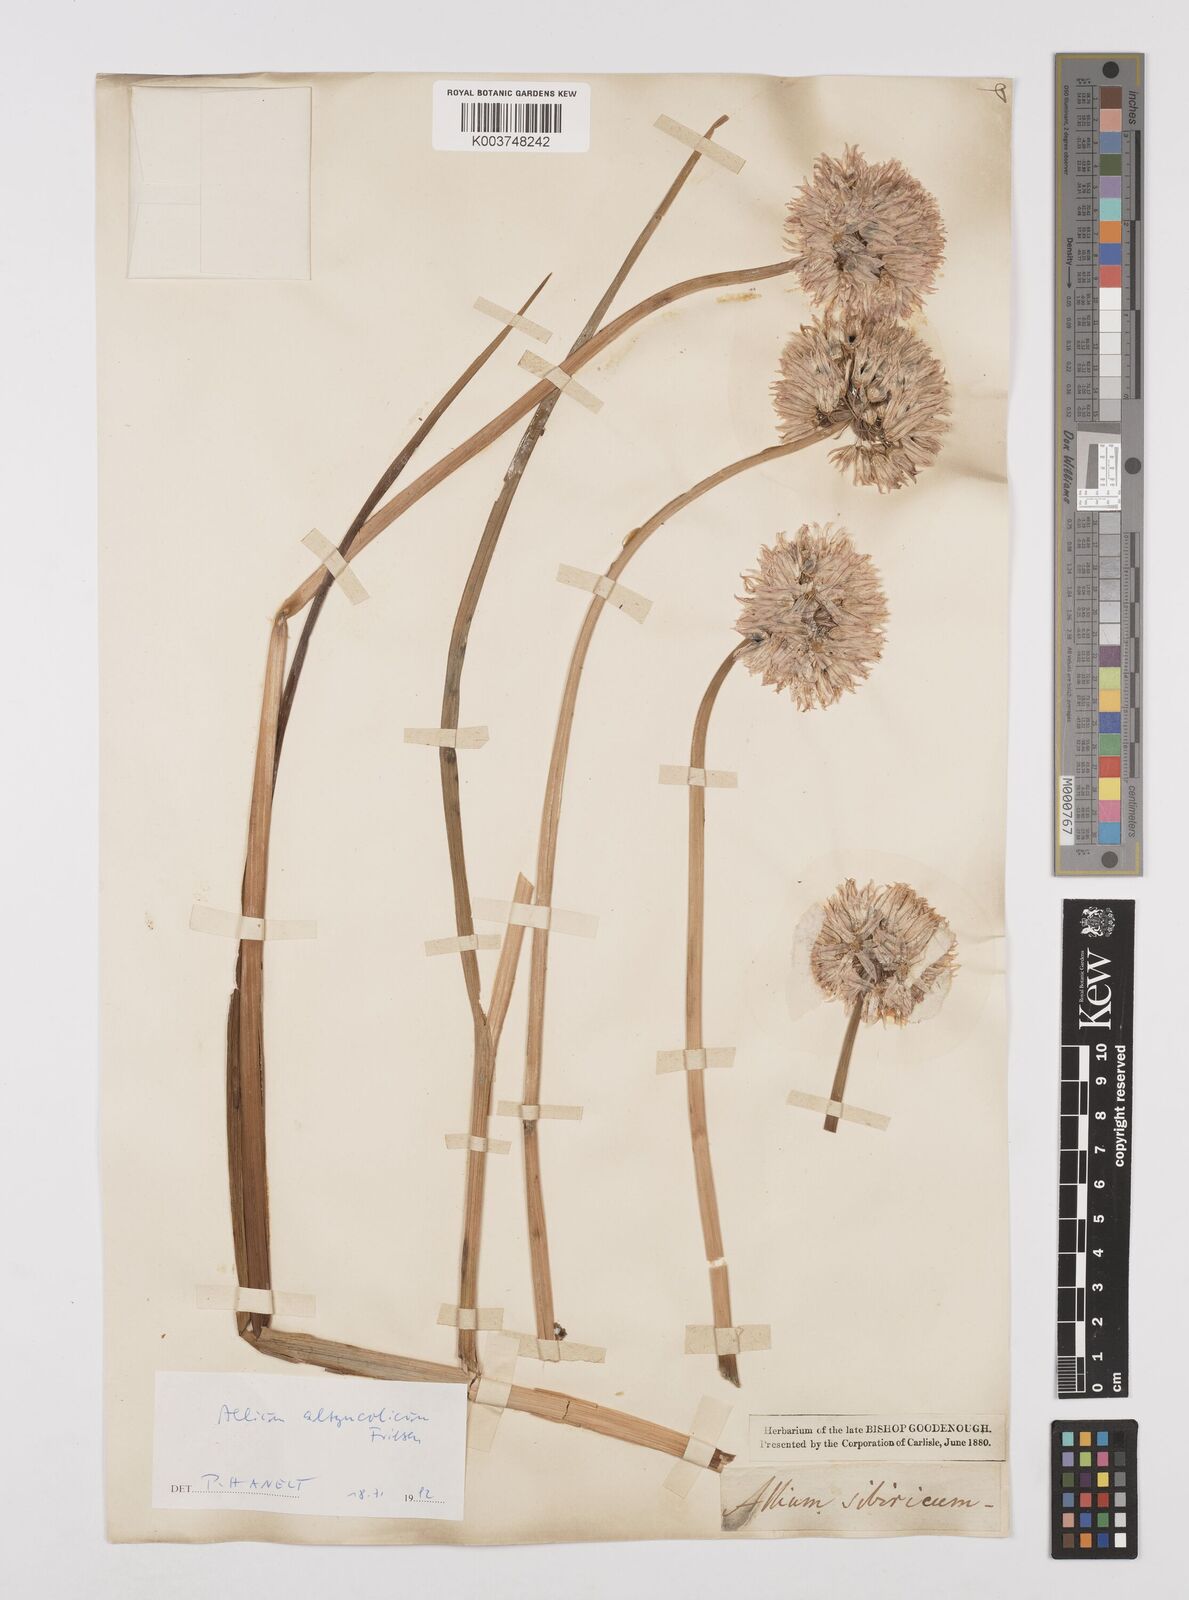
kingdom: Plantae
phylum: Tracheophyta
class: Liliopsida
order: Asparagales
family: Amaryllidaceae
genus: Allium
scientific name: Allium altyncolicum
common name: Altynkol chive
